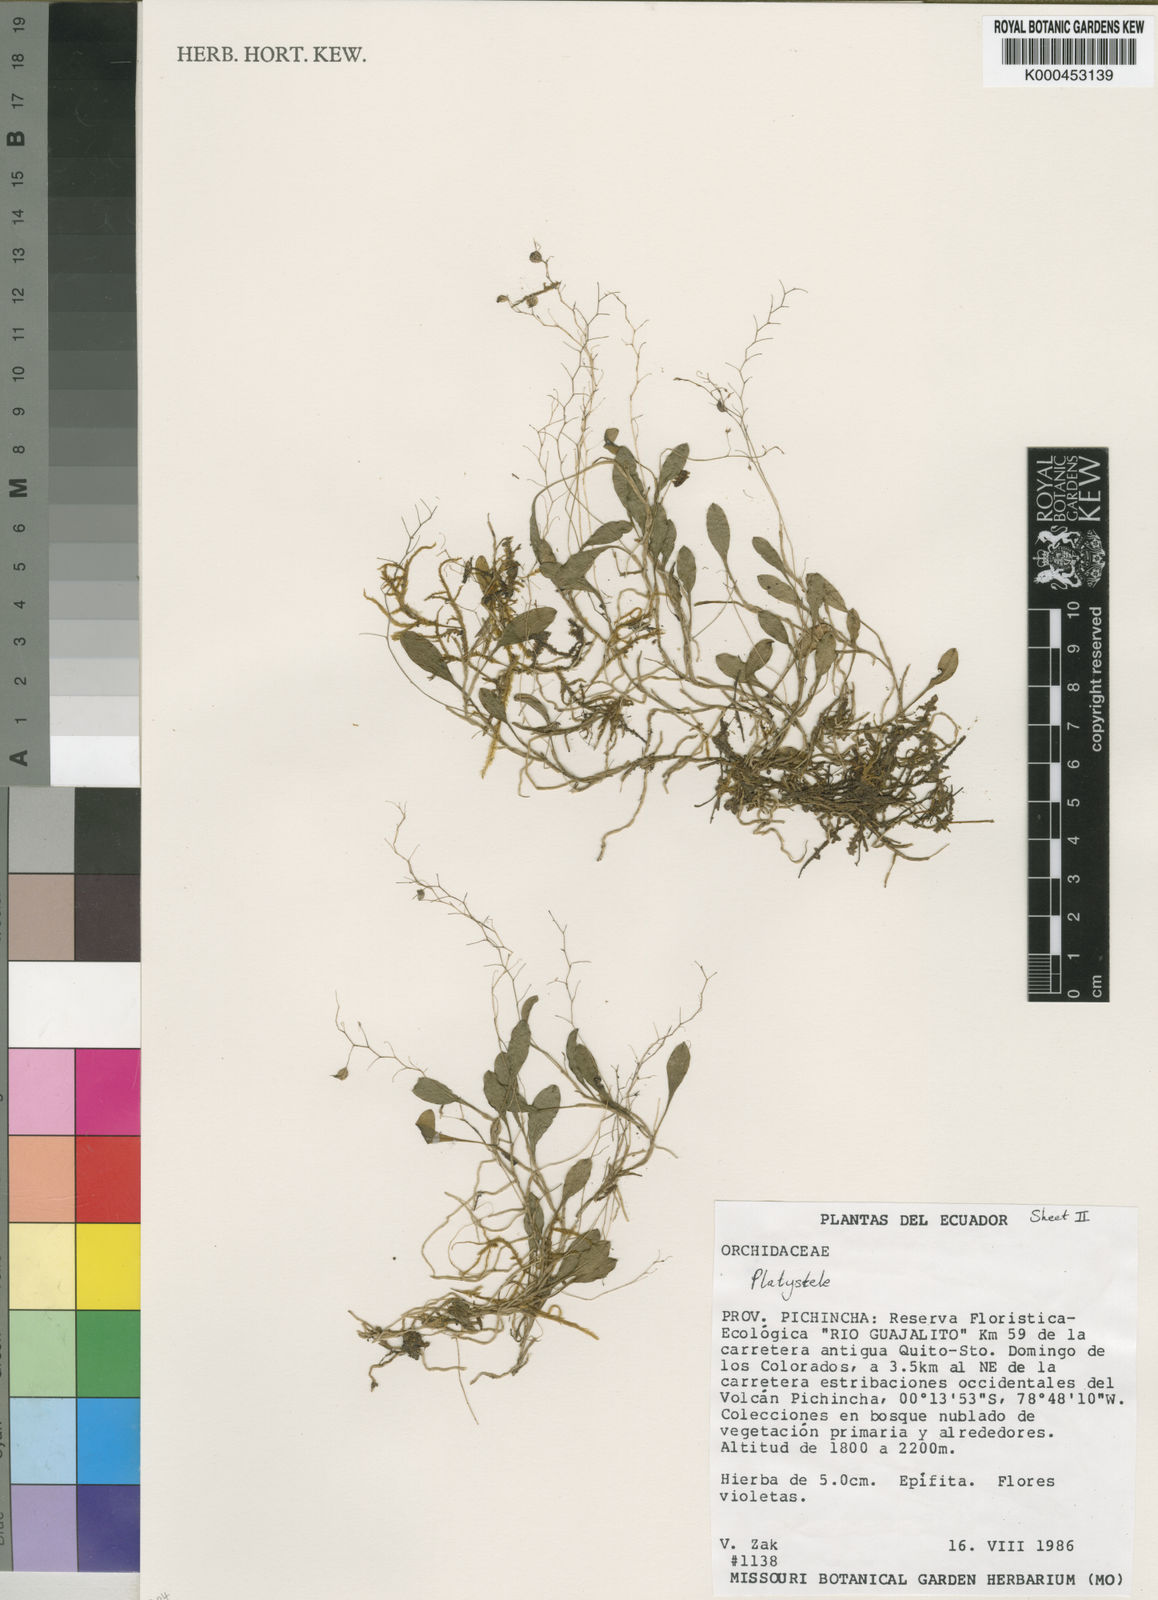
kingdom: Plantae
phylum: Tracheophyta
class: Liliopsida
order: Asparagales
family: Orchidaceae
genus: Platystele
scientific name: Platystele
